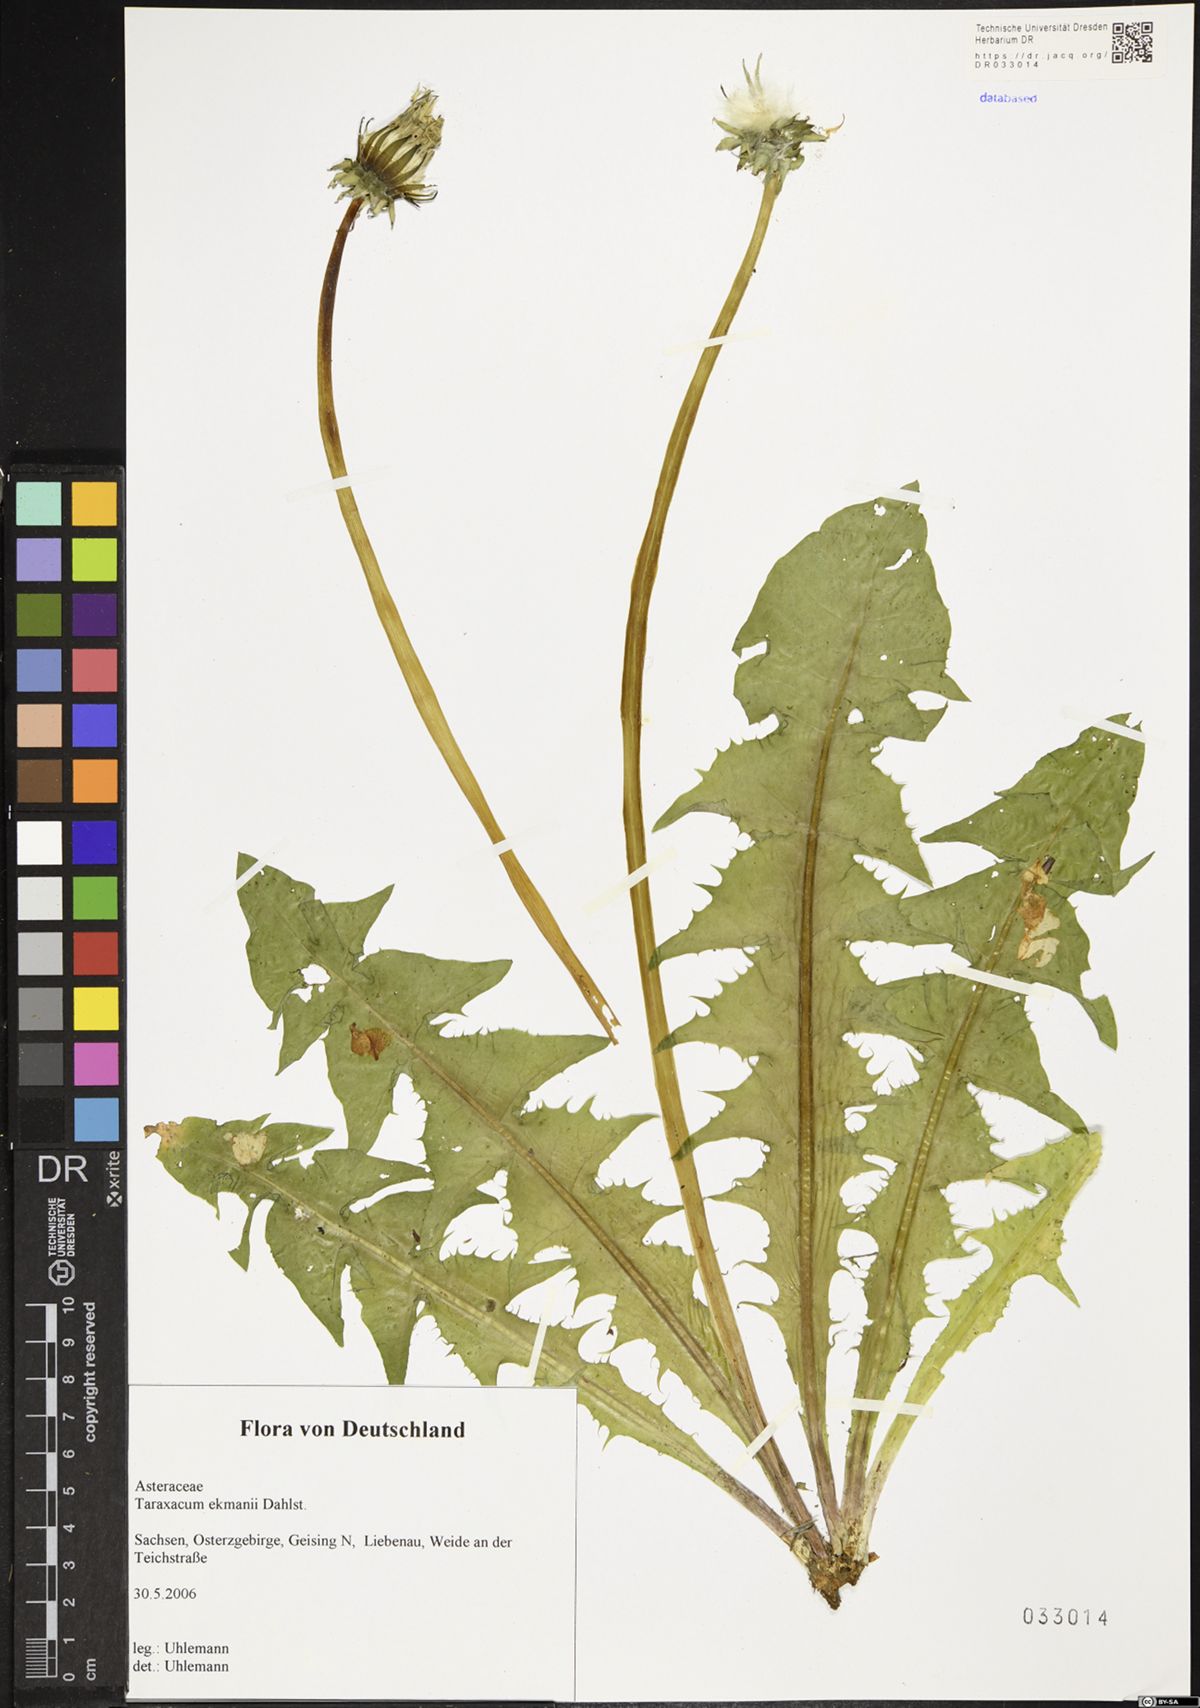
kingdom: Plantae
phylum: Tracheophyta
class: Magnoliopsida
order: Asterales
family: Asteraceae
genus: Taraxacum
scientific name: Taraxacum ekmanii
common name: Ekman's dandelion
